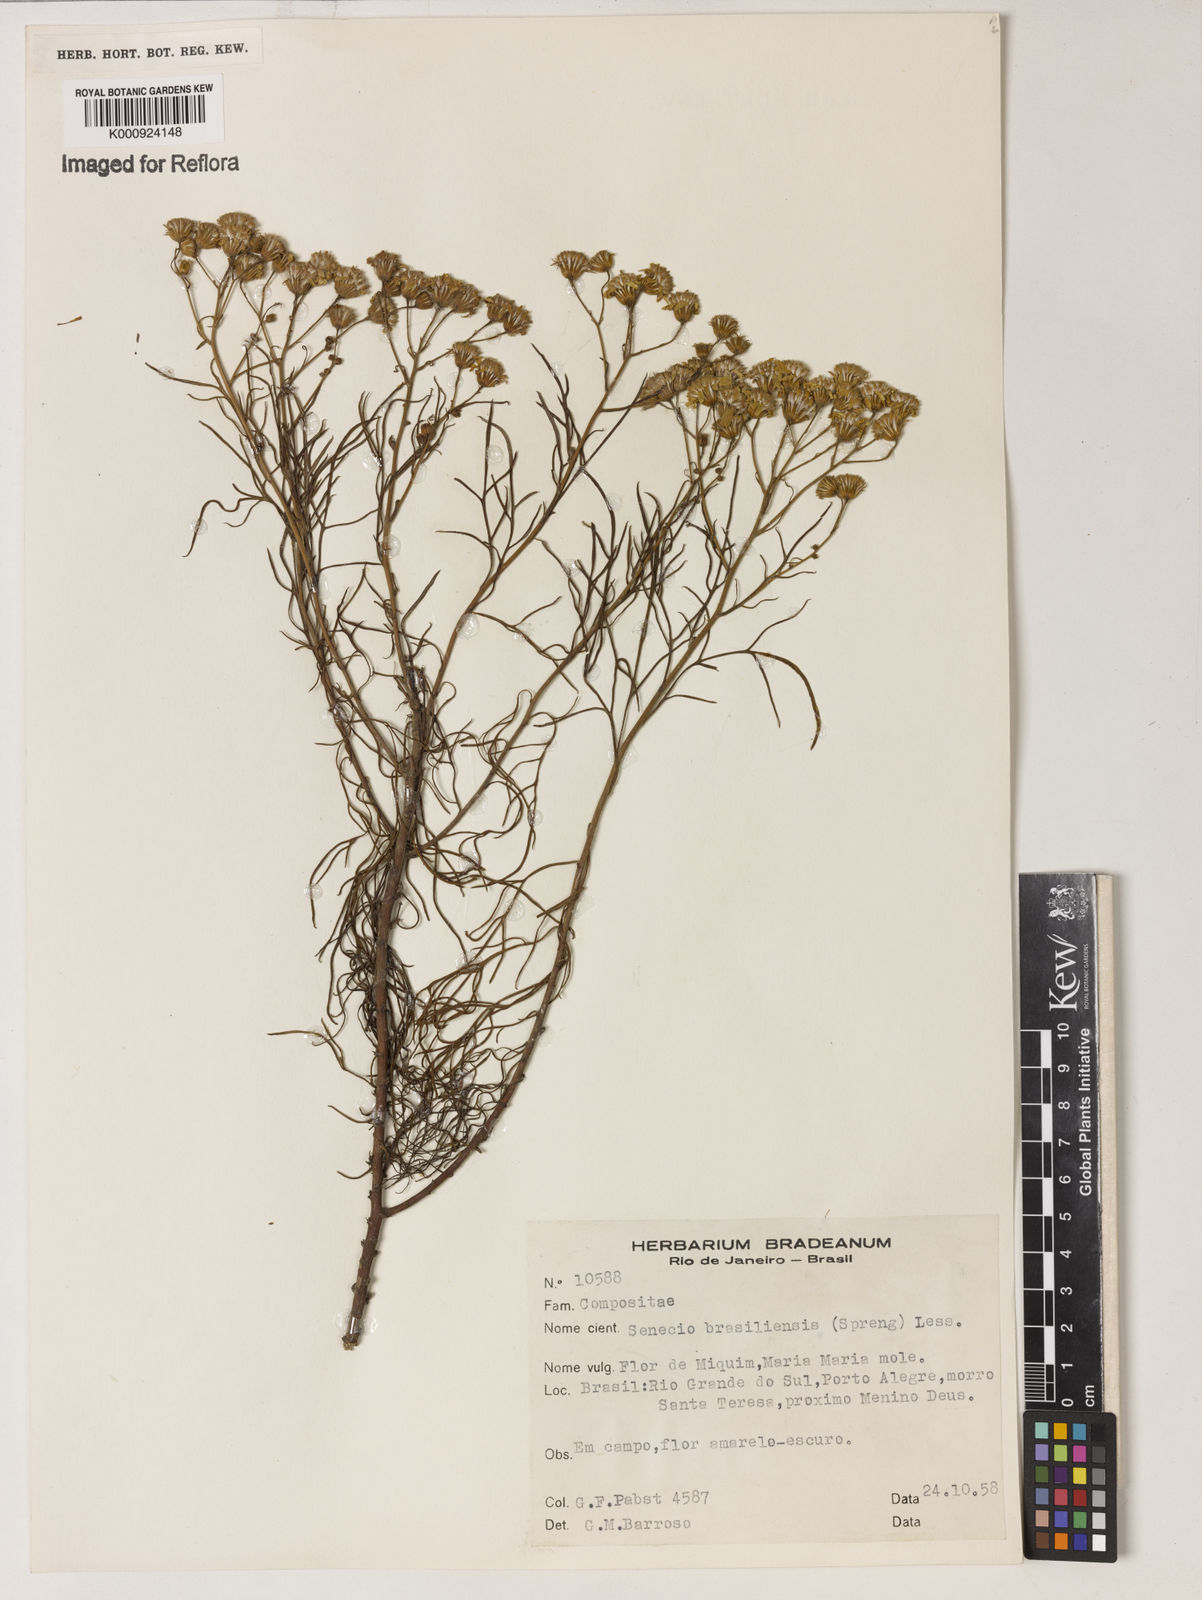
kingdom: Plantae
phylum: Tracheophyta
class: Magnoliopsida
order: Asterales
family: Asteraceae
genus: Senecio
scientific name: Senecio brasiliensis
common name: Hemp-leaf ragwort
